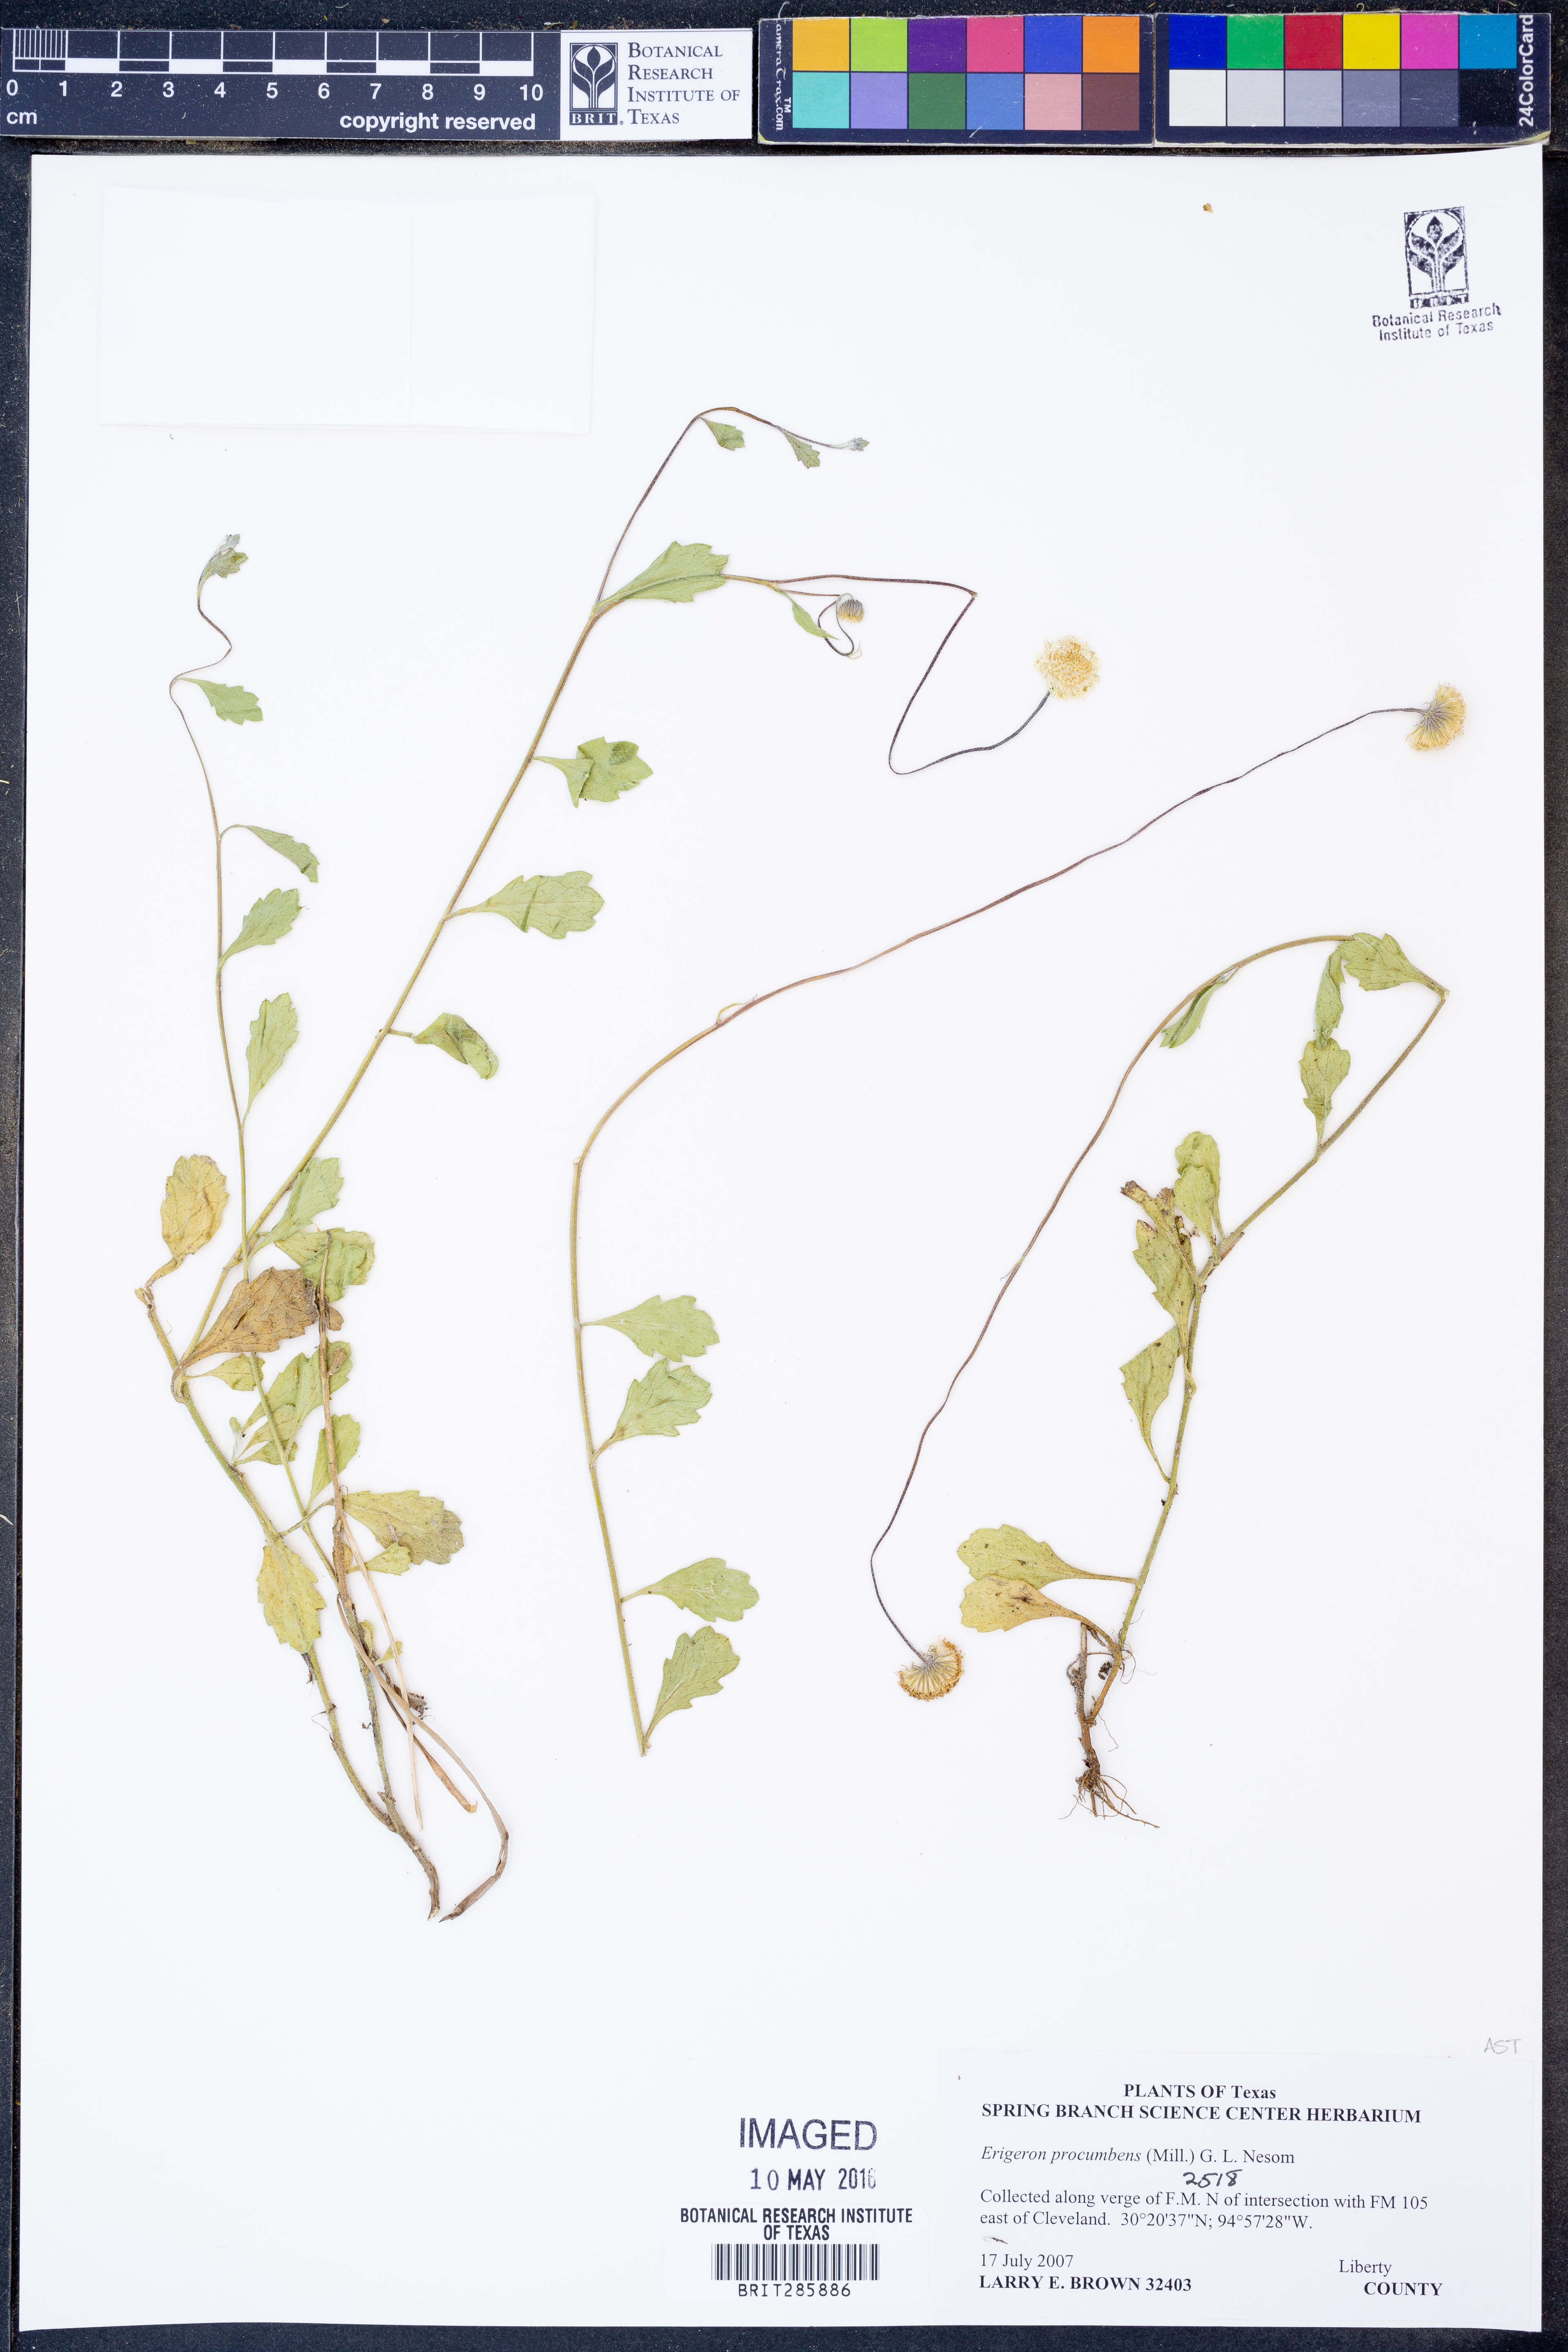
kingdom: Plantae
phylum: Tracheophyta
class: Magnoliopsida
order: Asterales
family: Asteraceae
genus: Erigeron
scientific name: Erigeron procumbens
